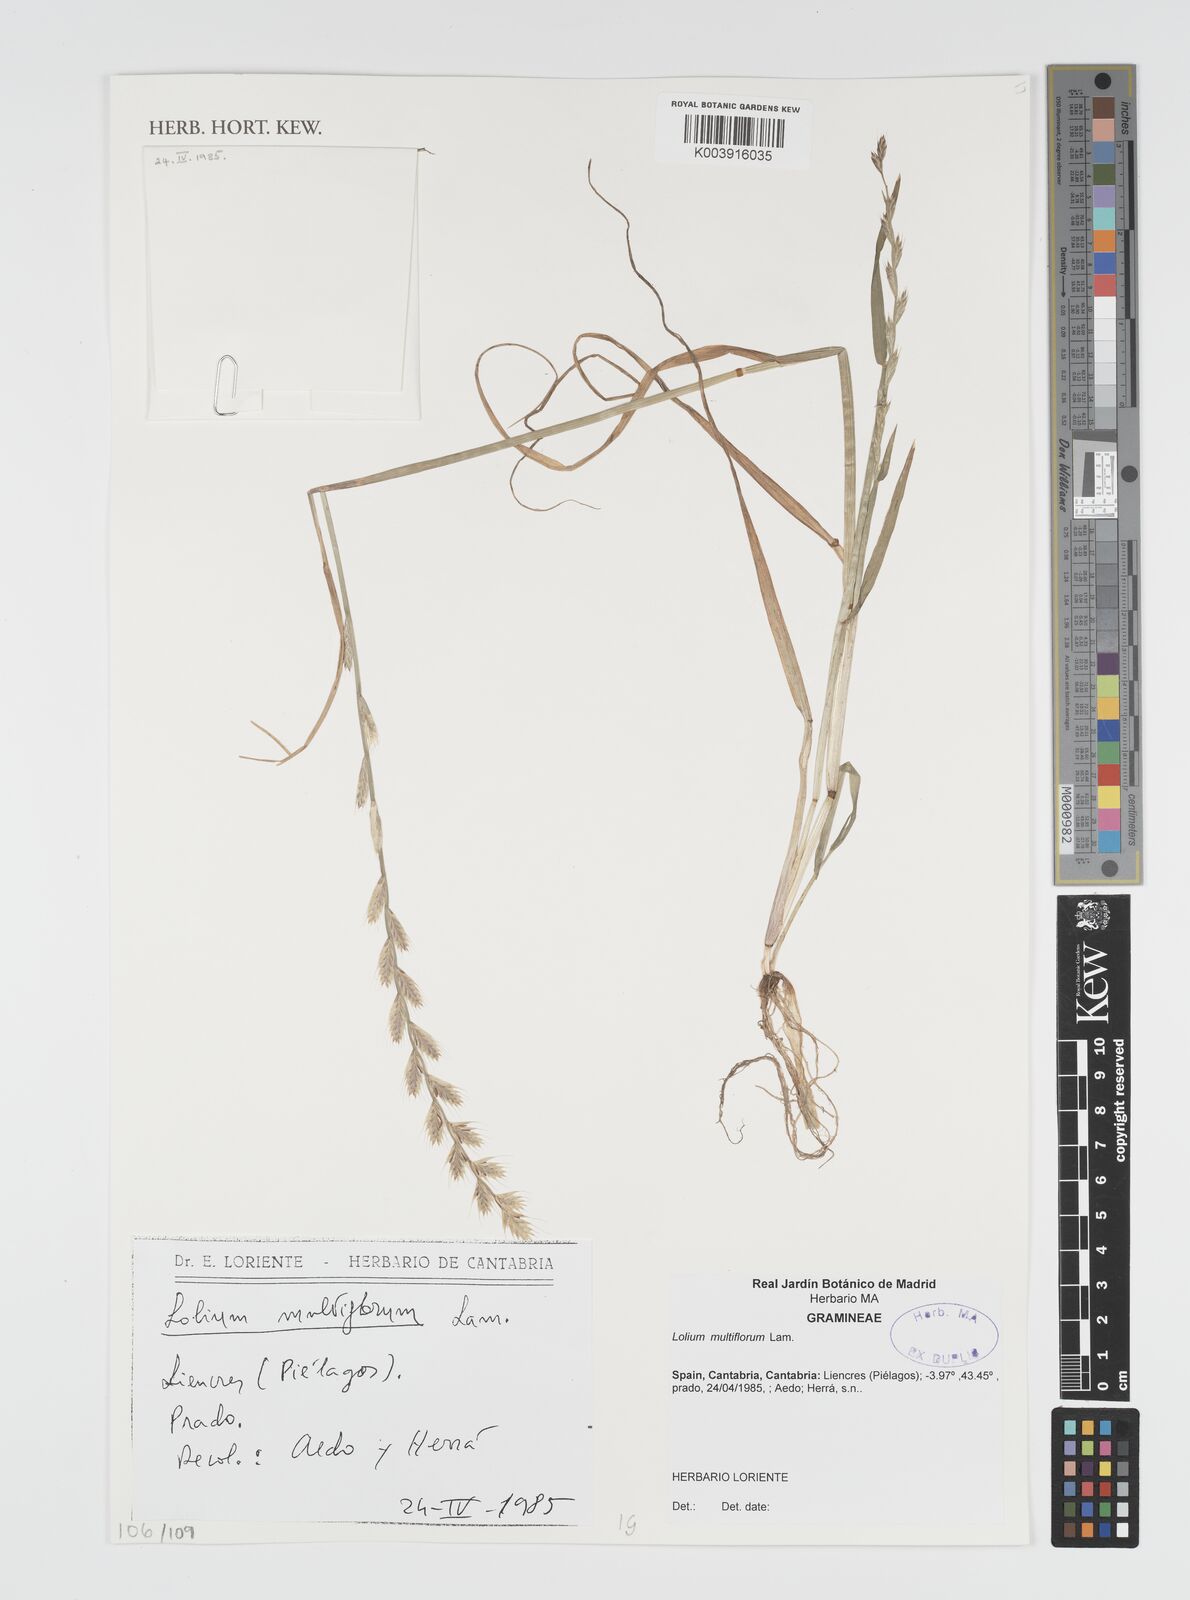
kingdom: Plantae
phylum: Tracheophyta
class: Liliopsida
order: Poales
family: Poaceae
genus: Lolium
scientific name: Lolium multiflorum
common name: Annual ryegrass
